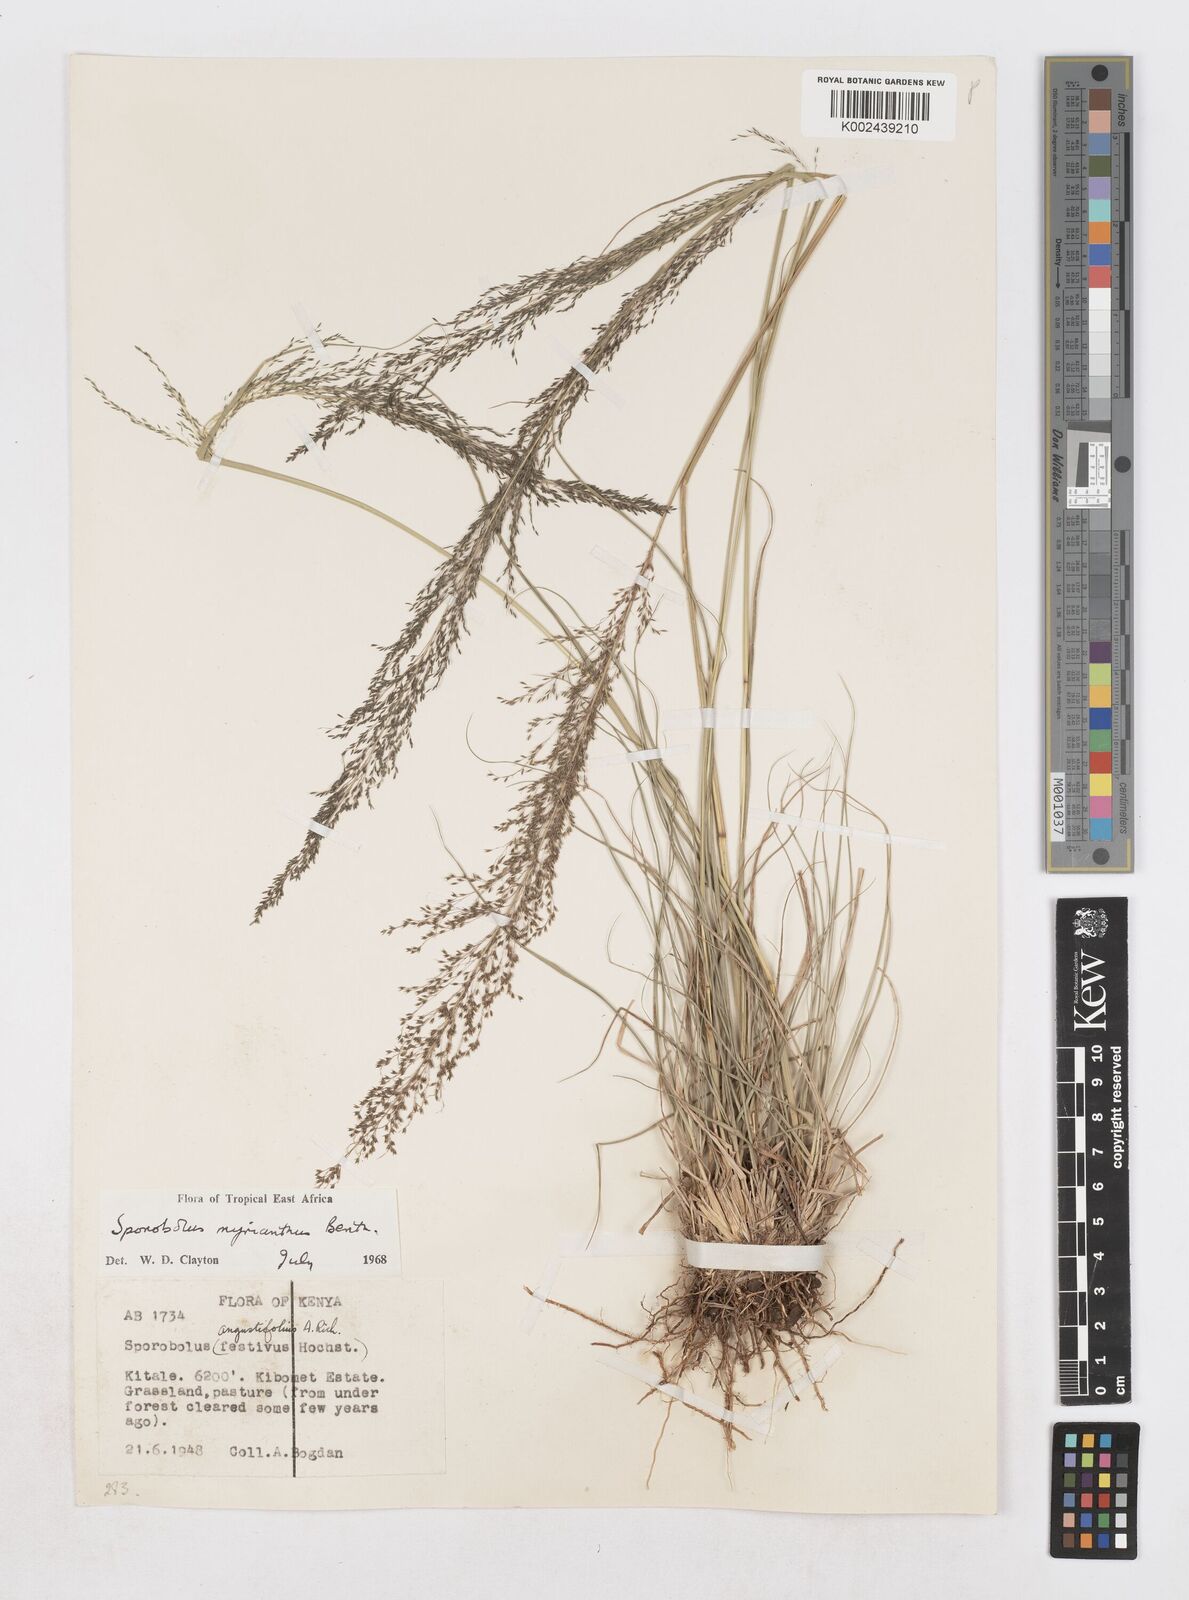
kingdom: Plantae
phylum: Tracheophyta
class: Liliopsida
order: Poales
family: Poaceae
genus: Sporobolus
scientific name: Sporobolus myrianthus
